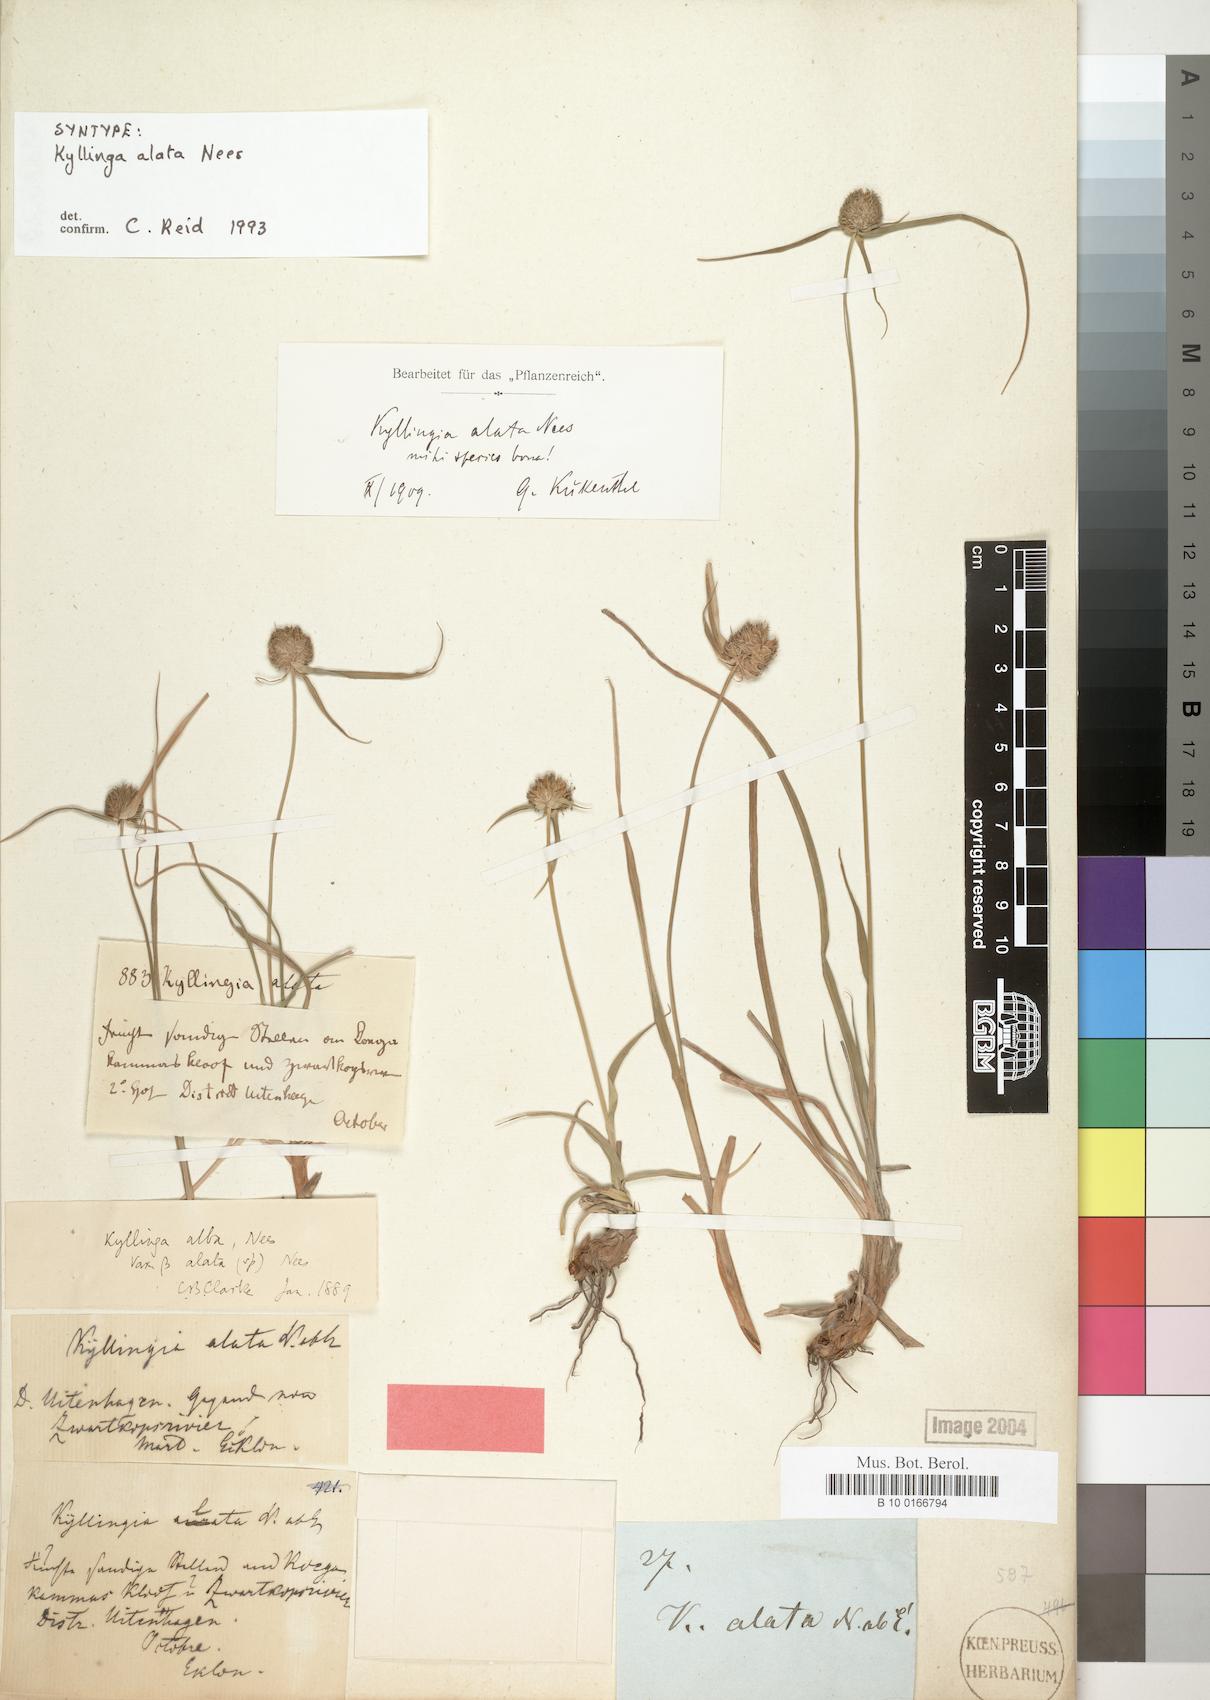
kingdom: Plantae
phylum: Tracheophyta
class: Liliopsida
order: Poales
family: Cyperaceae
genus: Cyperus
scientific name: Cyperus alatus
